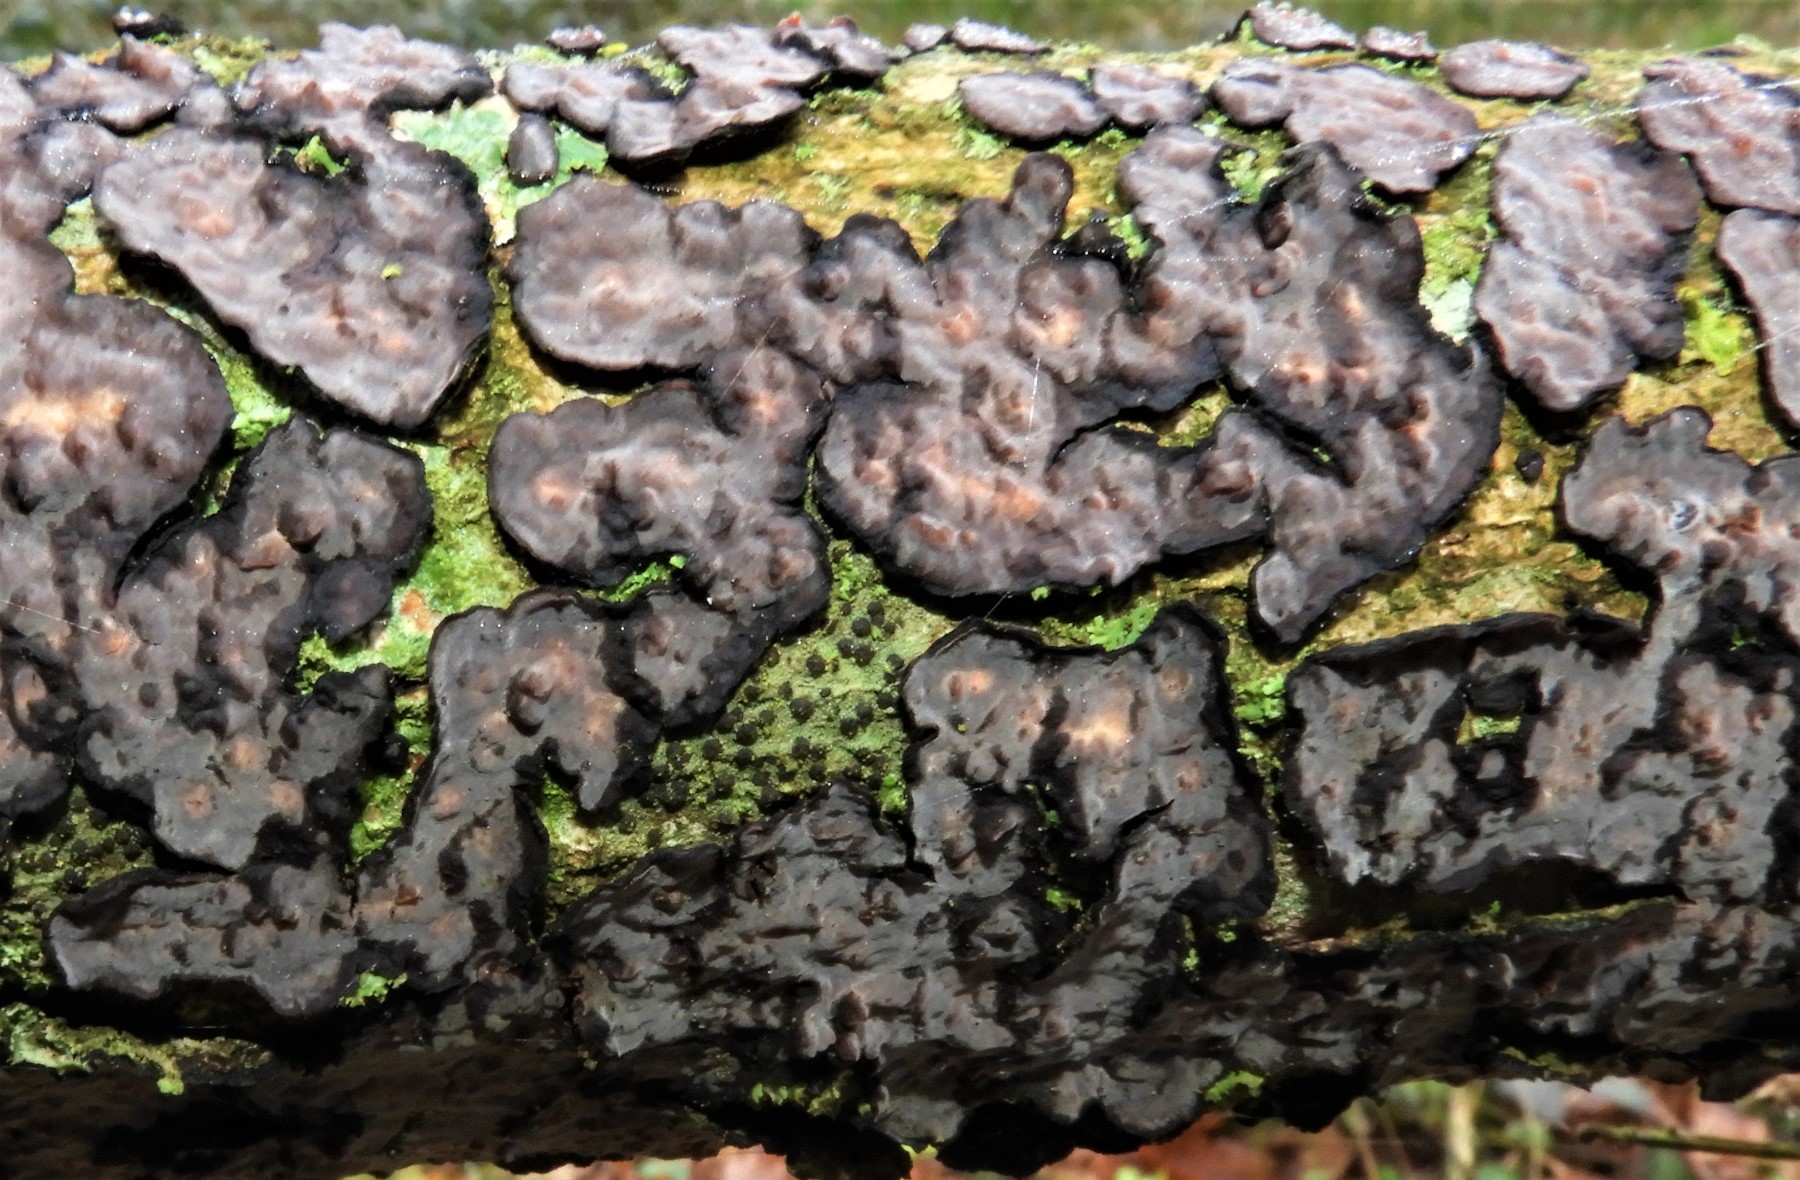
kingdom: Fungi
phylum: Basidiomycota
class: Agaricomycetes
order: Russulales
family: Peniophoraceae
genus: Peniophora
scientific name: Peniophora quercina
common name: ege-voksskind
